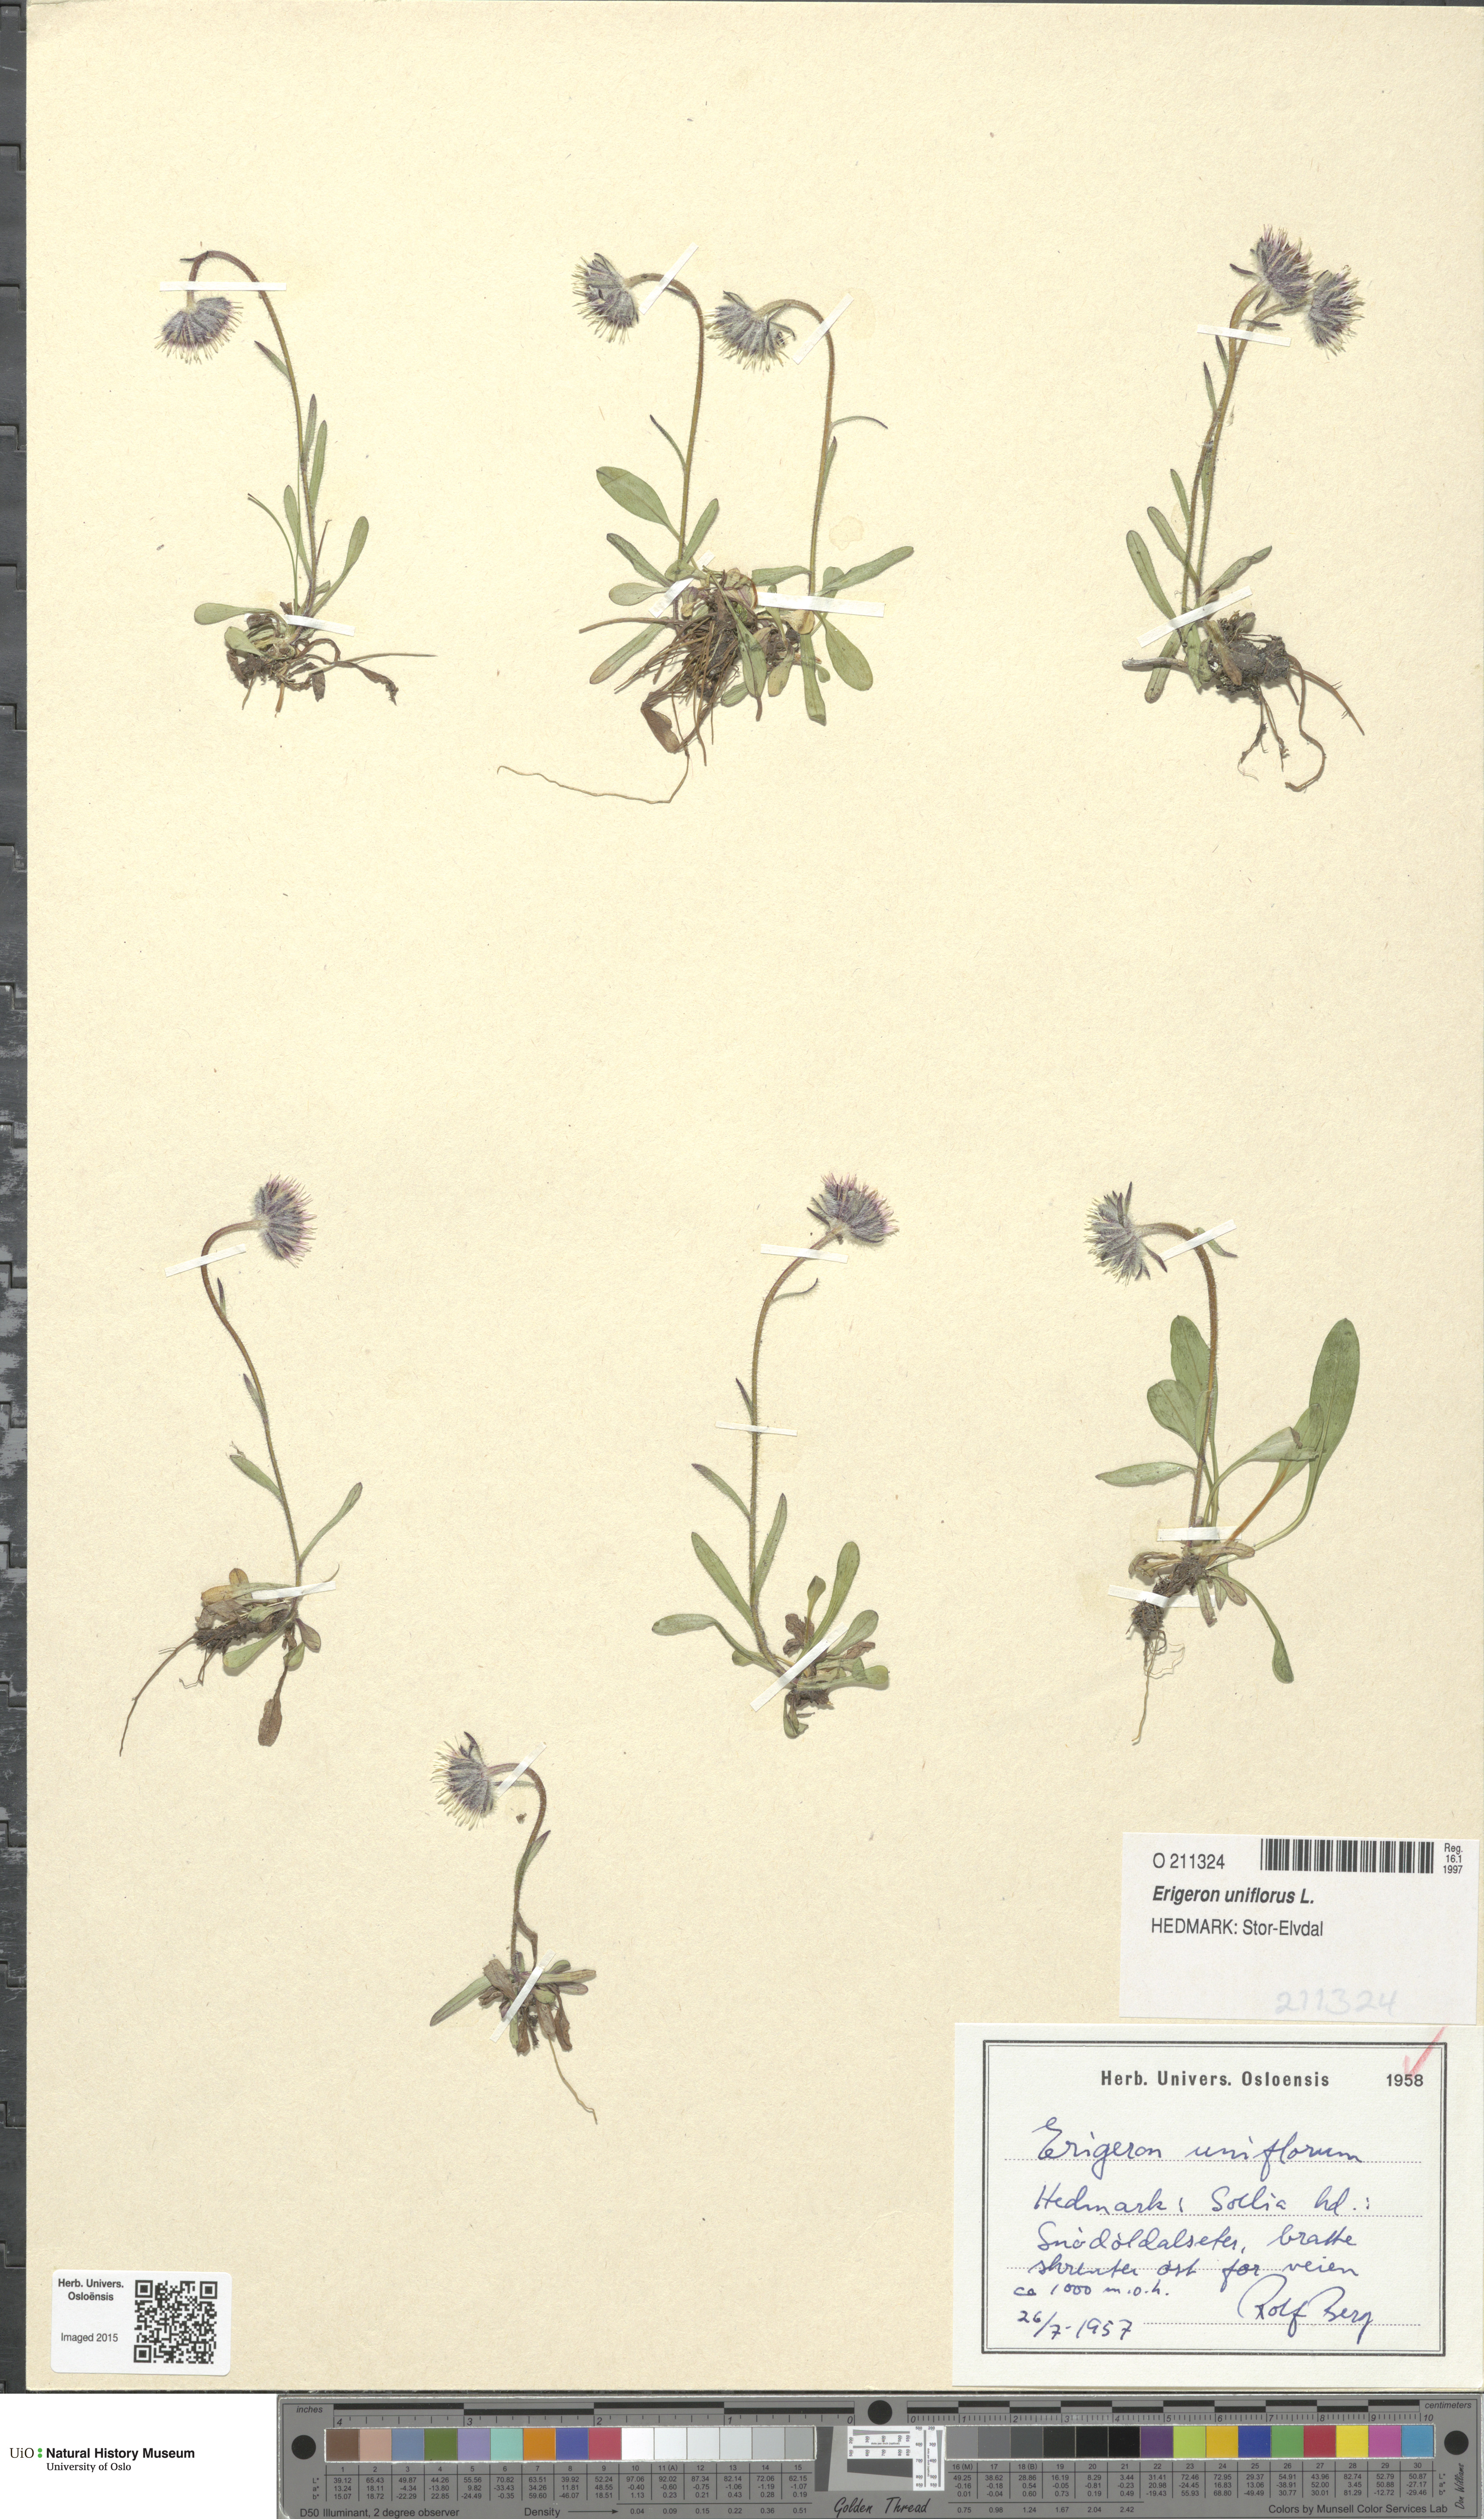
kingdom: Plantae
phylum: Tracheophyta
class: Magnoliopsida
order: Asterales
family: Asteraceae
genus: Erigeron
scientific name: Erigeron uniflorus
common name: Northern daisy
